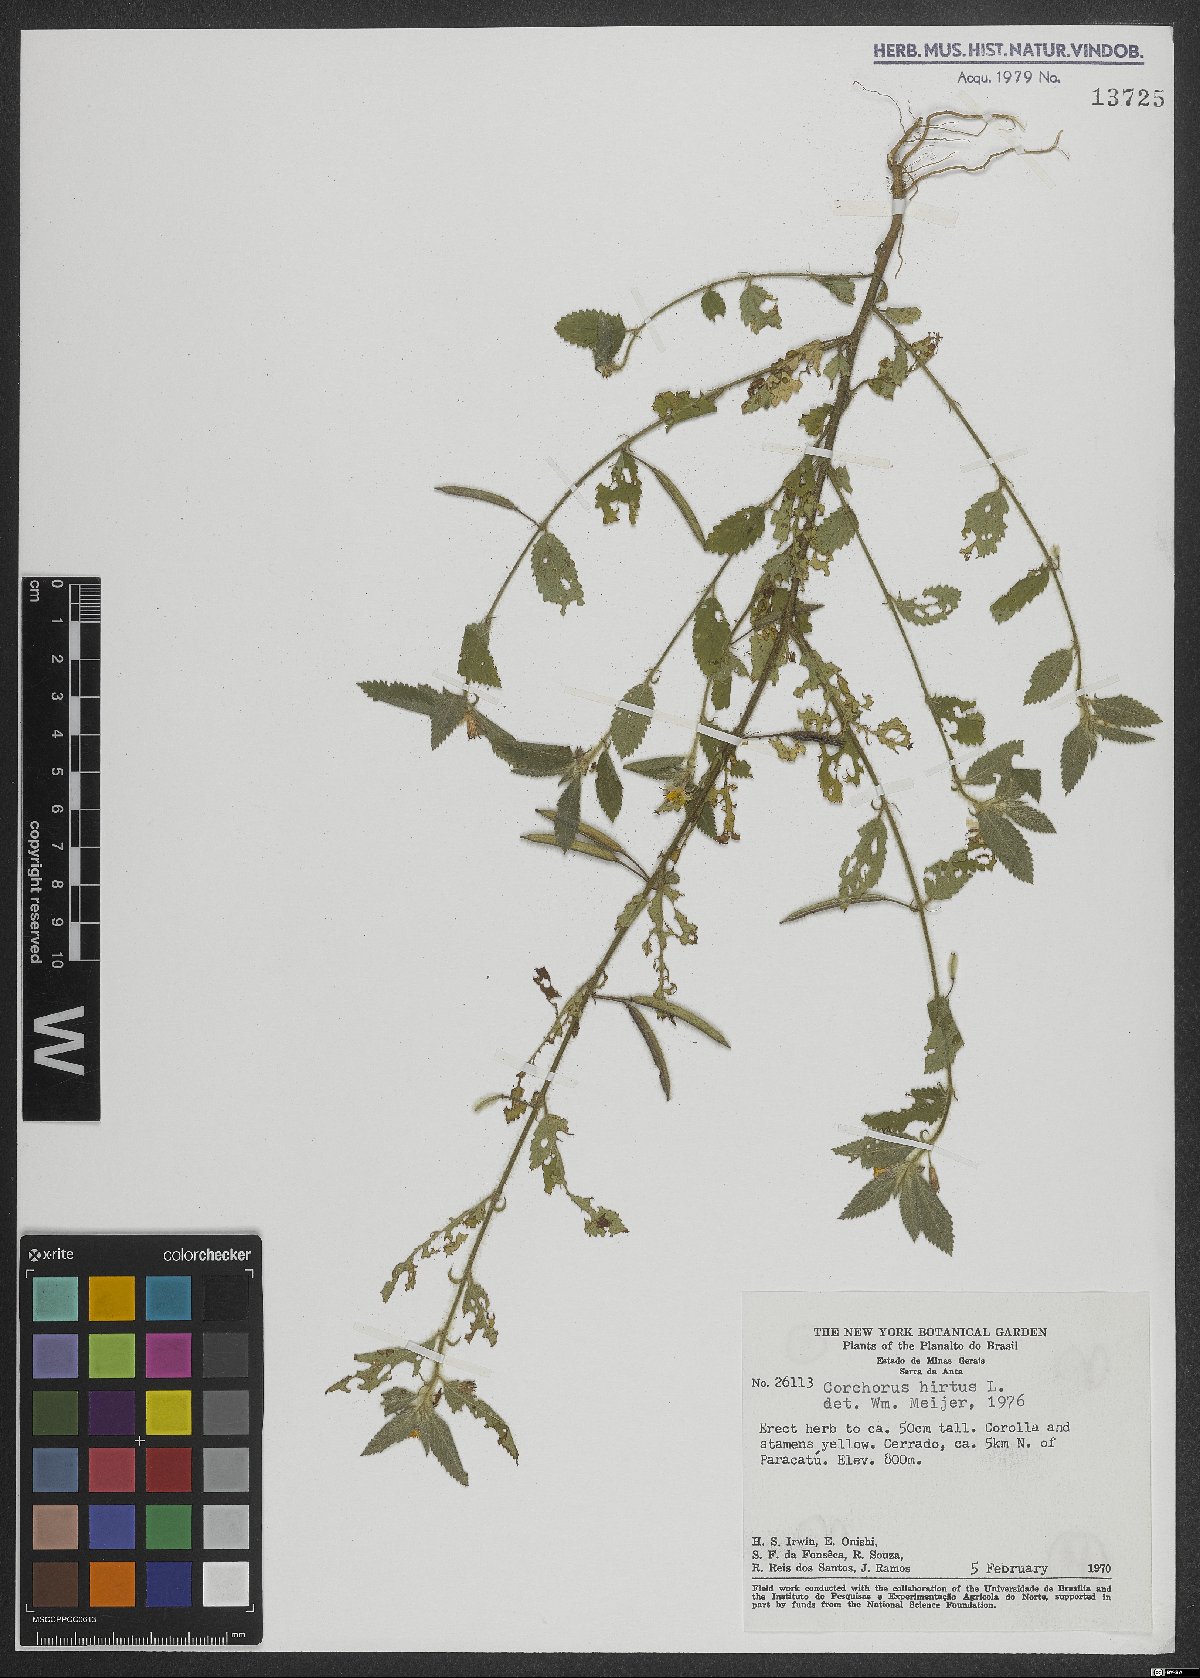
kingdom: Plantae
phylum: Tracheophyta
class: Magnoliopsida
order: Malvales
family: Malvaceae
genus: Corchorus
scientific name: Corchorus hirtus
